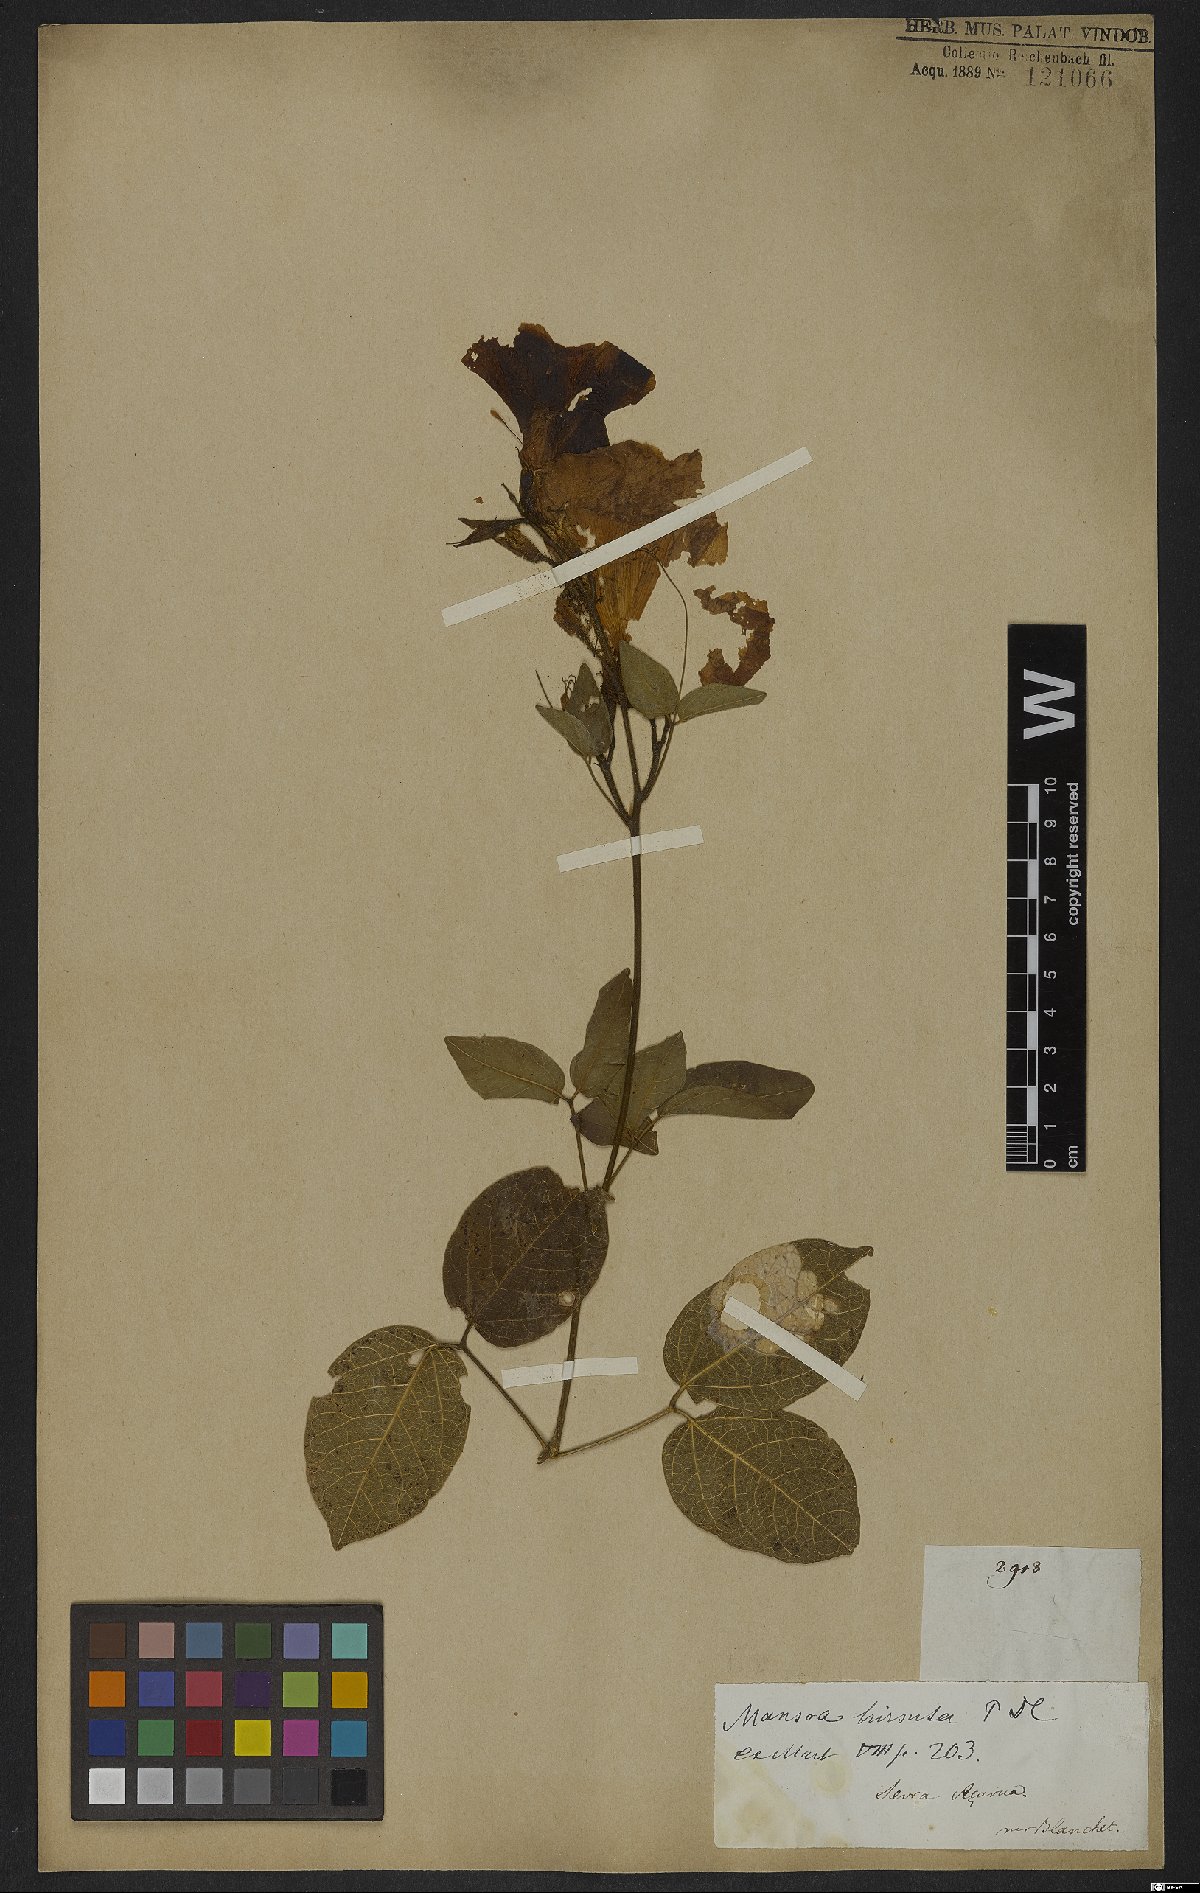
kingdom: Plantae
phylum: Tracheophyta
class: Magnoliopsida
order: Lamiales
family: Bignoniaceae
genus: Mansoa
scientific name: Mansoa hirsuta
